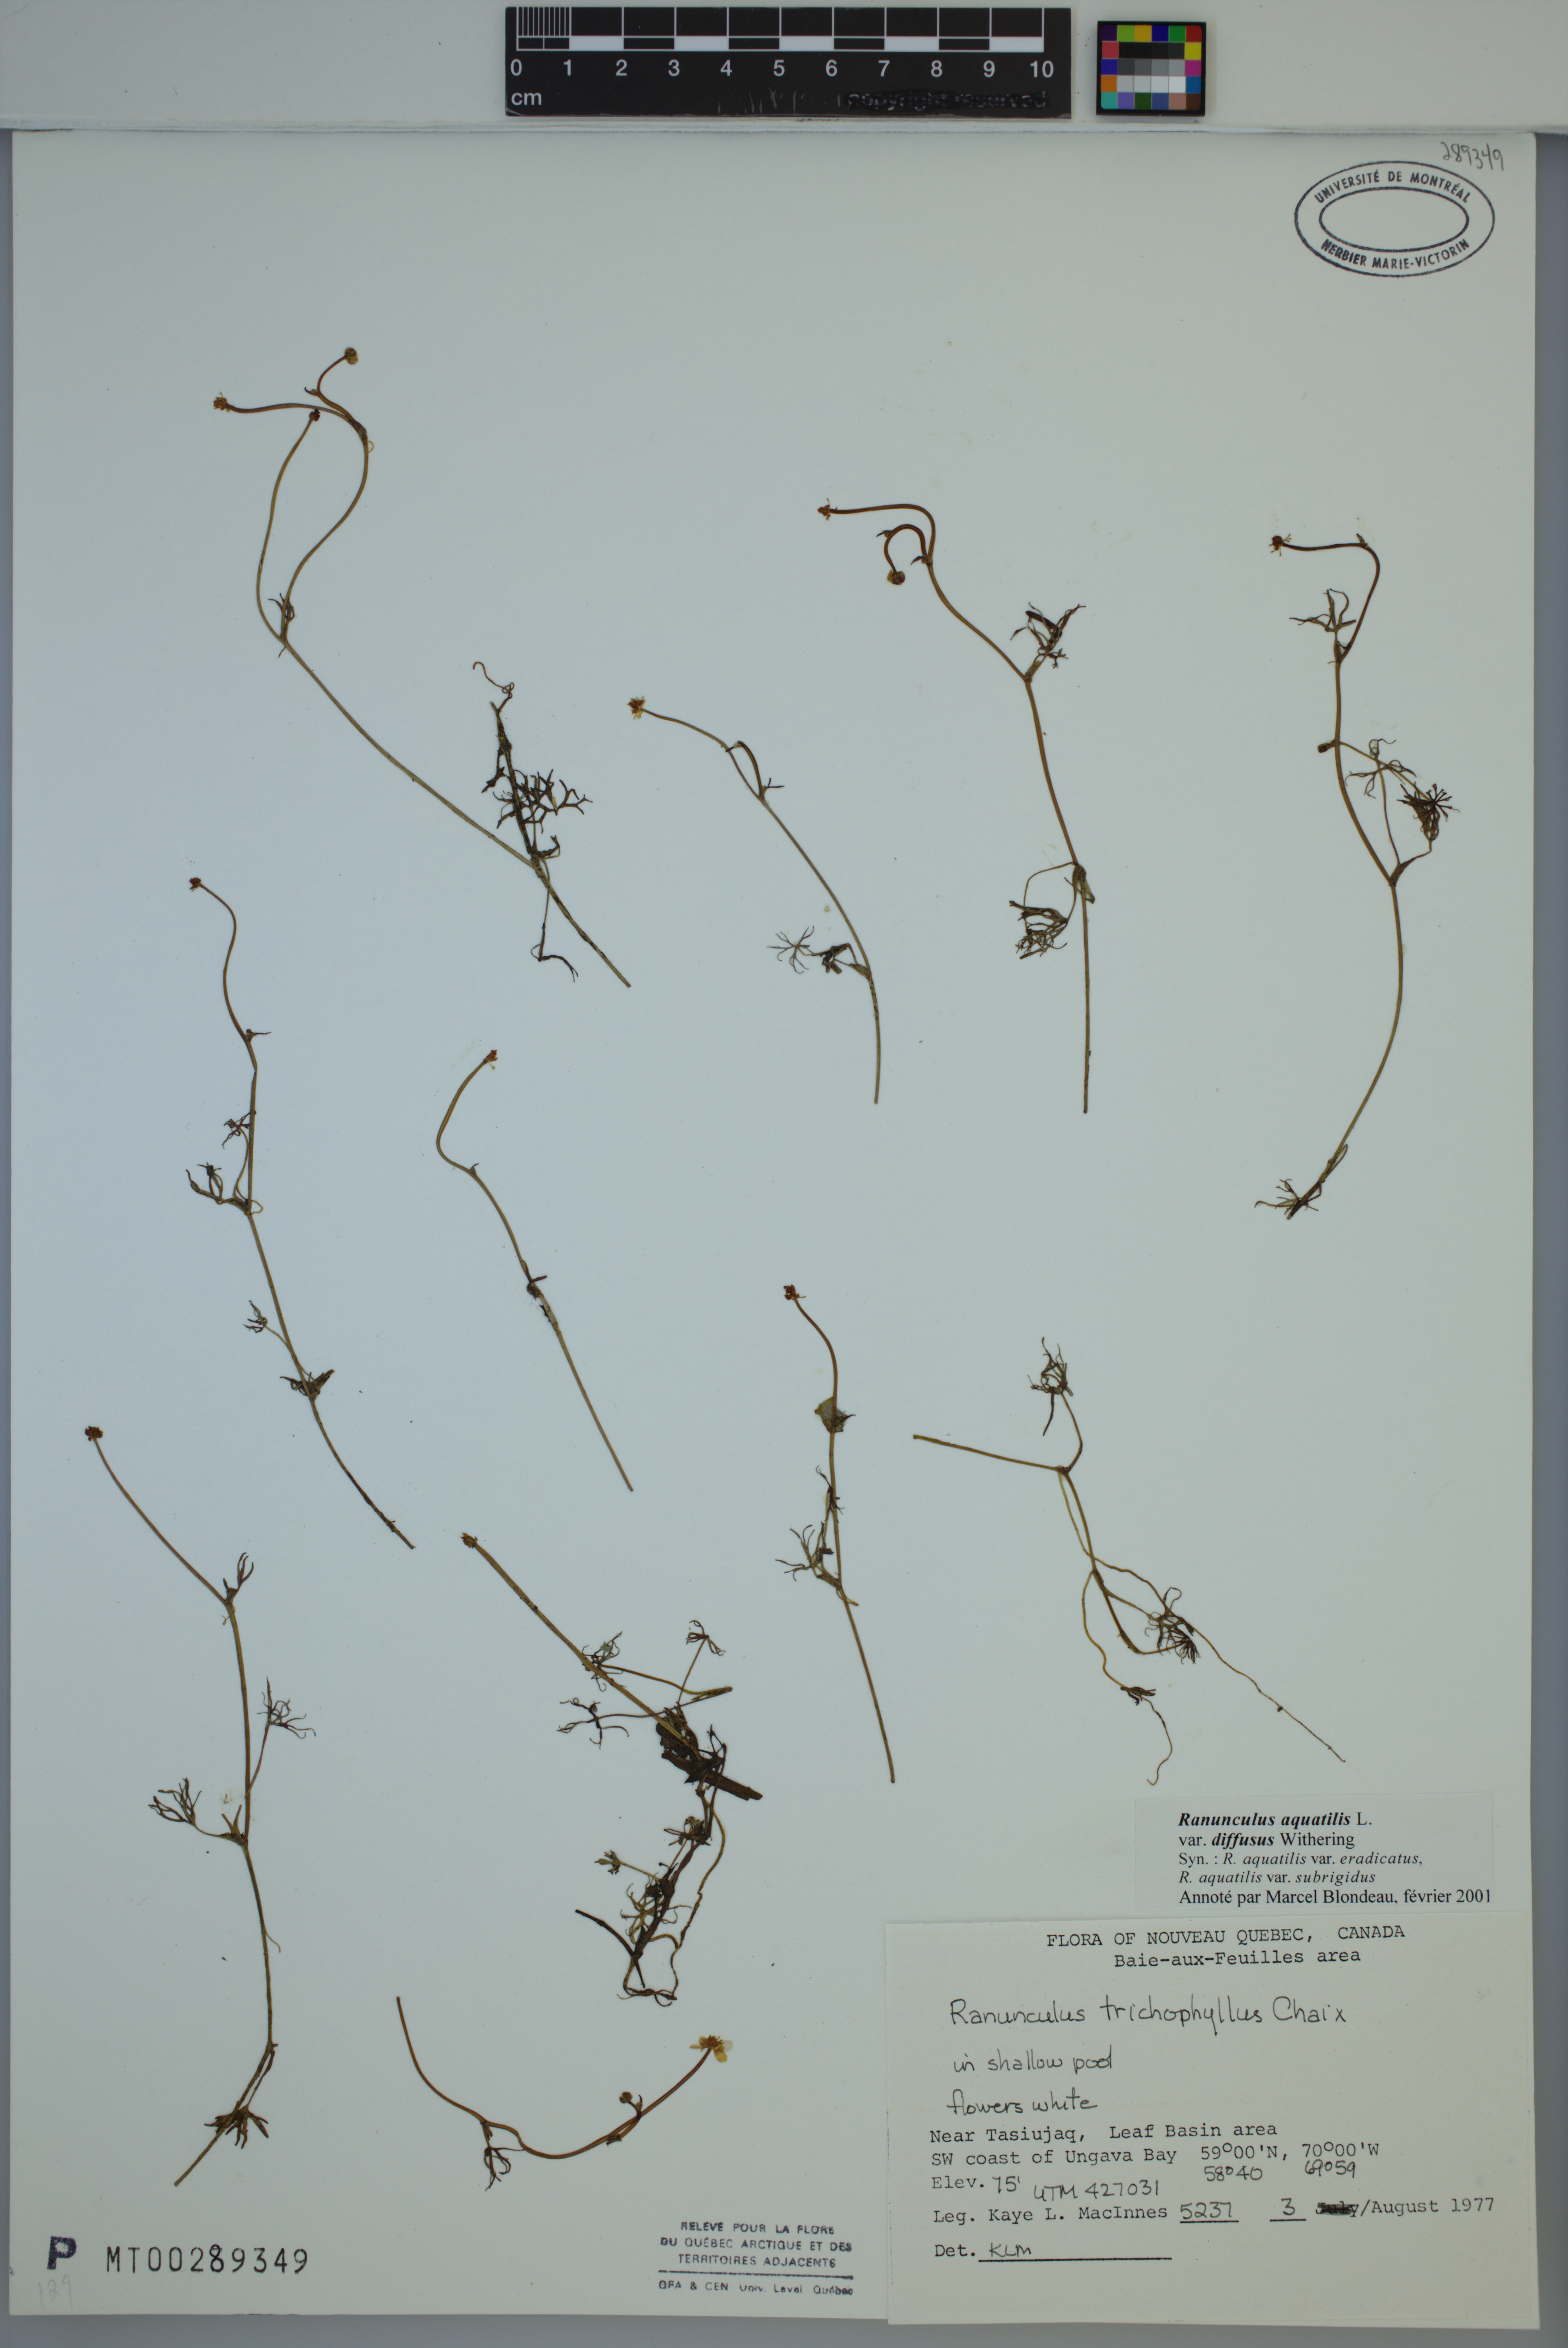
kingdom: Plantae
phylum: Tracheophyta
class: Magnoliopsida
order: Ranunculales
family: Ranunculaceae
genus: Ranunculus
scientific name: Ranunculus trichophyllus
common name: Thread-leaved water-crowfoot
